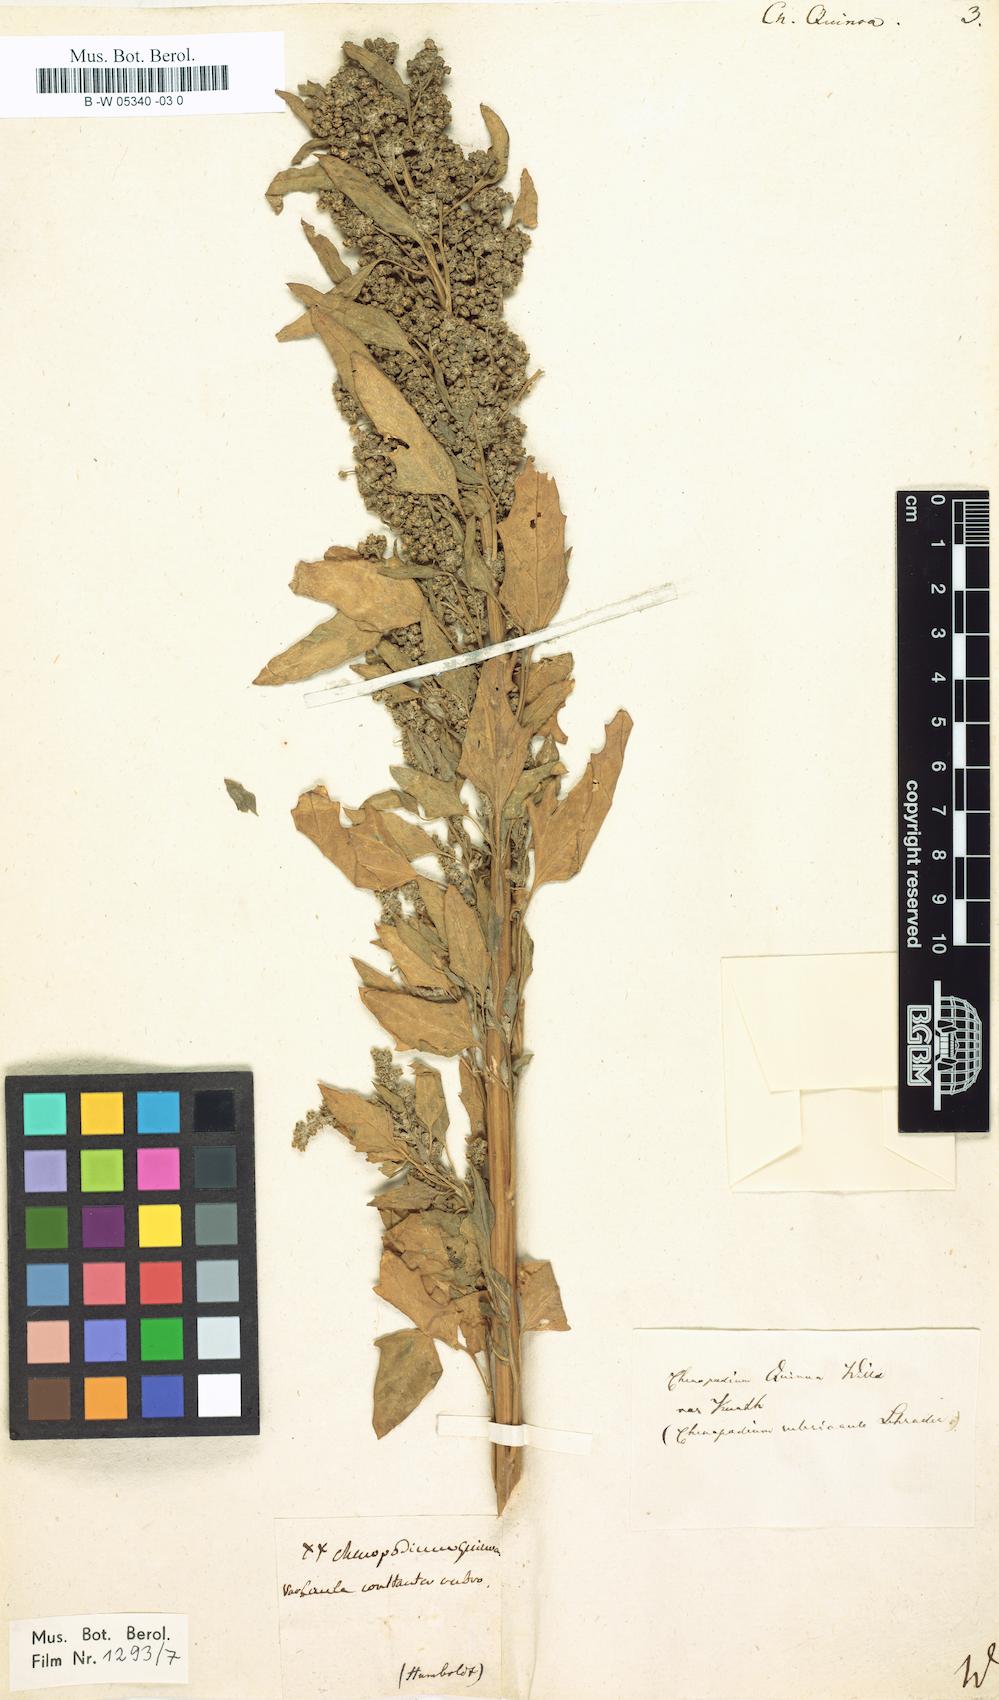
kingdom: Plantae
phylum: Tracheophyta
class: Magnoliopsida
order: Caryophyllales
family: Amaranthaceae
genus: Chenopodium
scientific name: Chenopodium quinoa
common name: Quinoa
